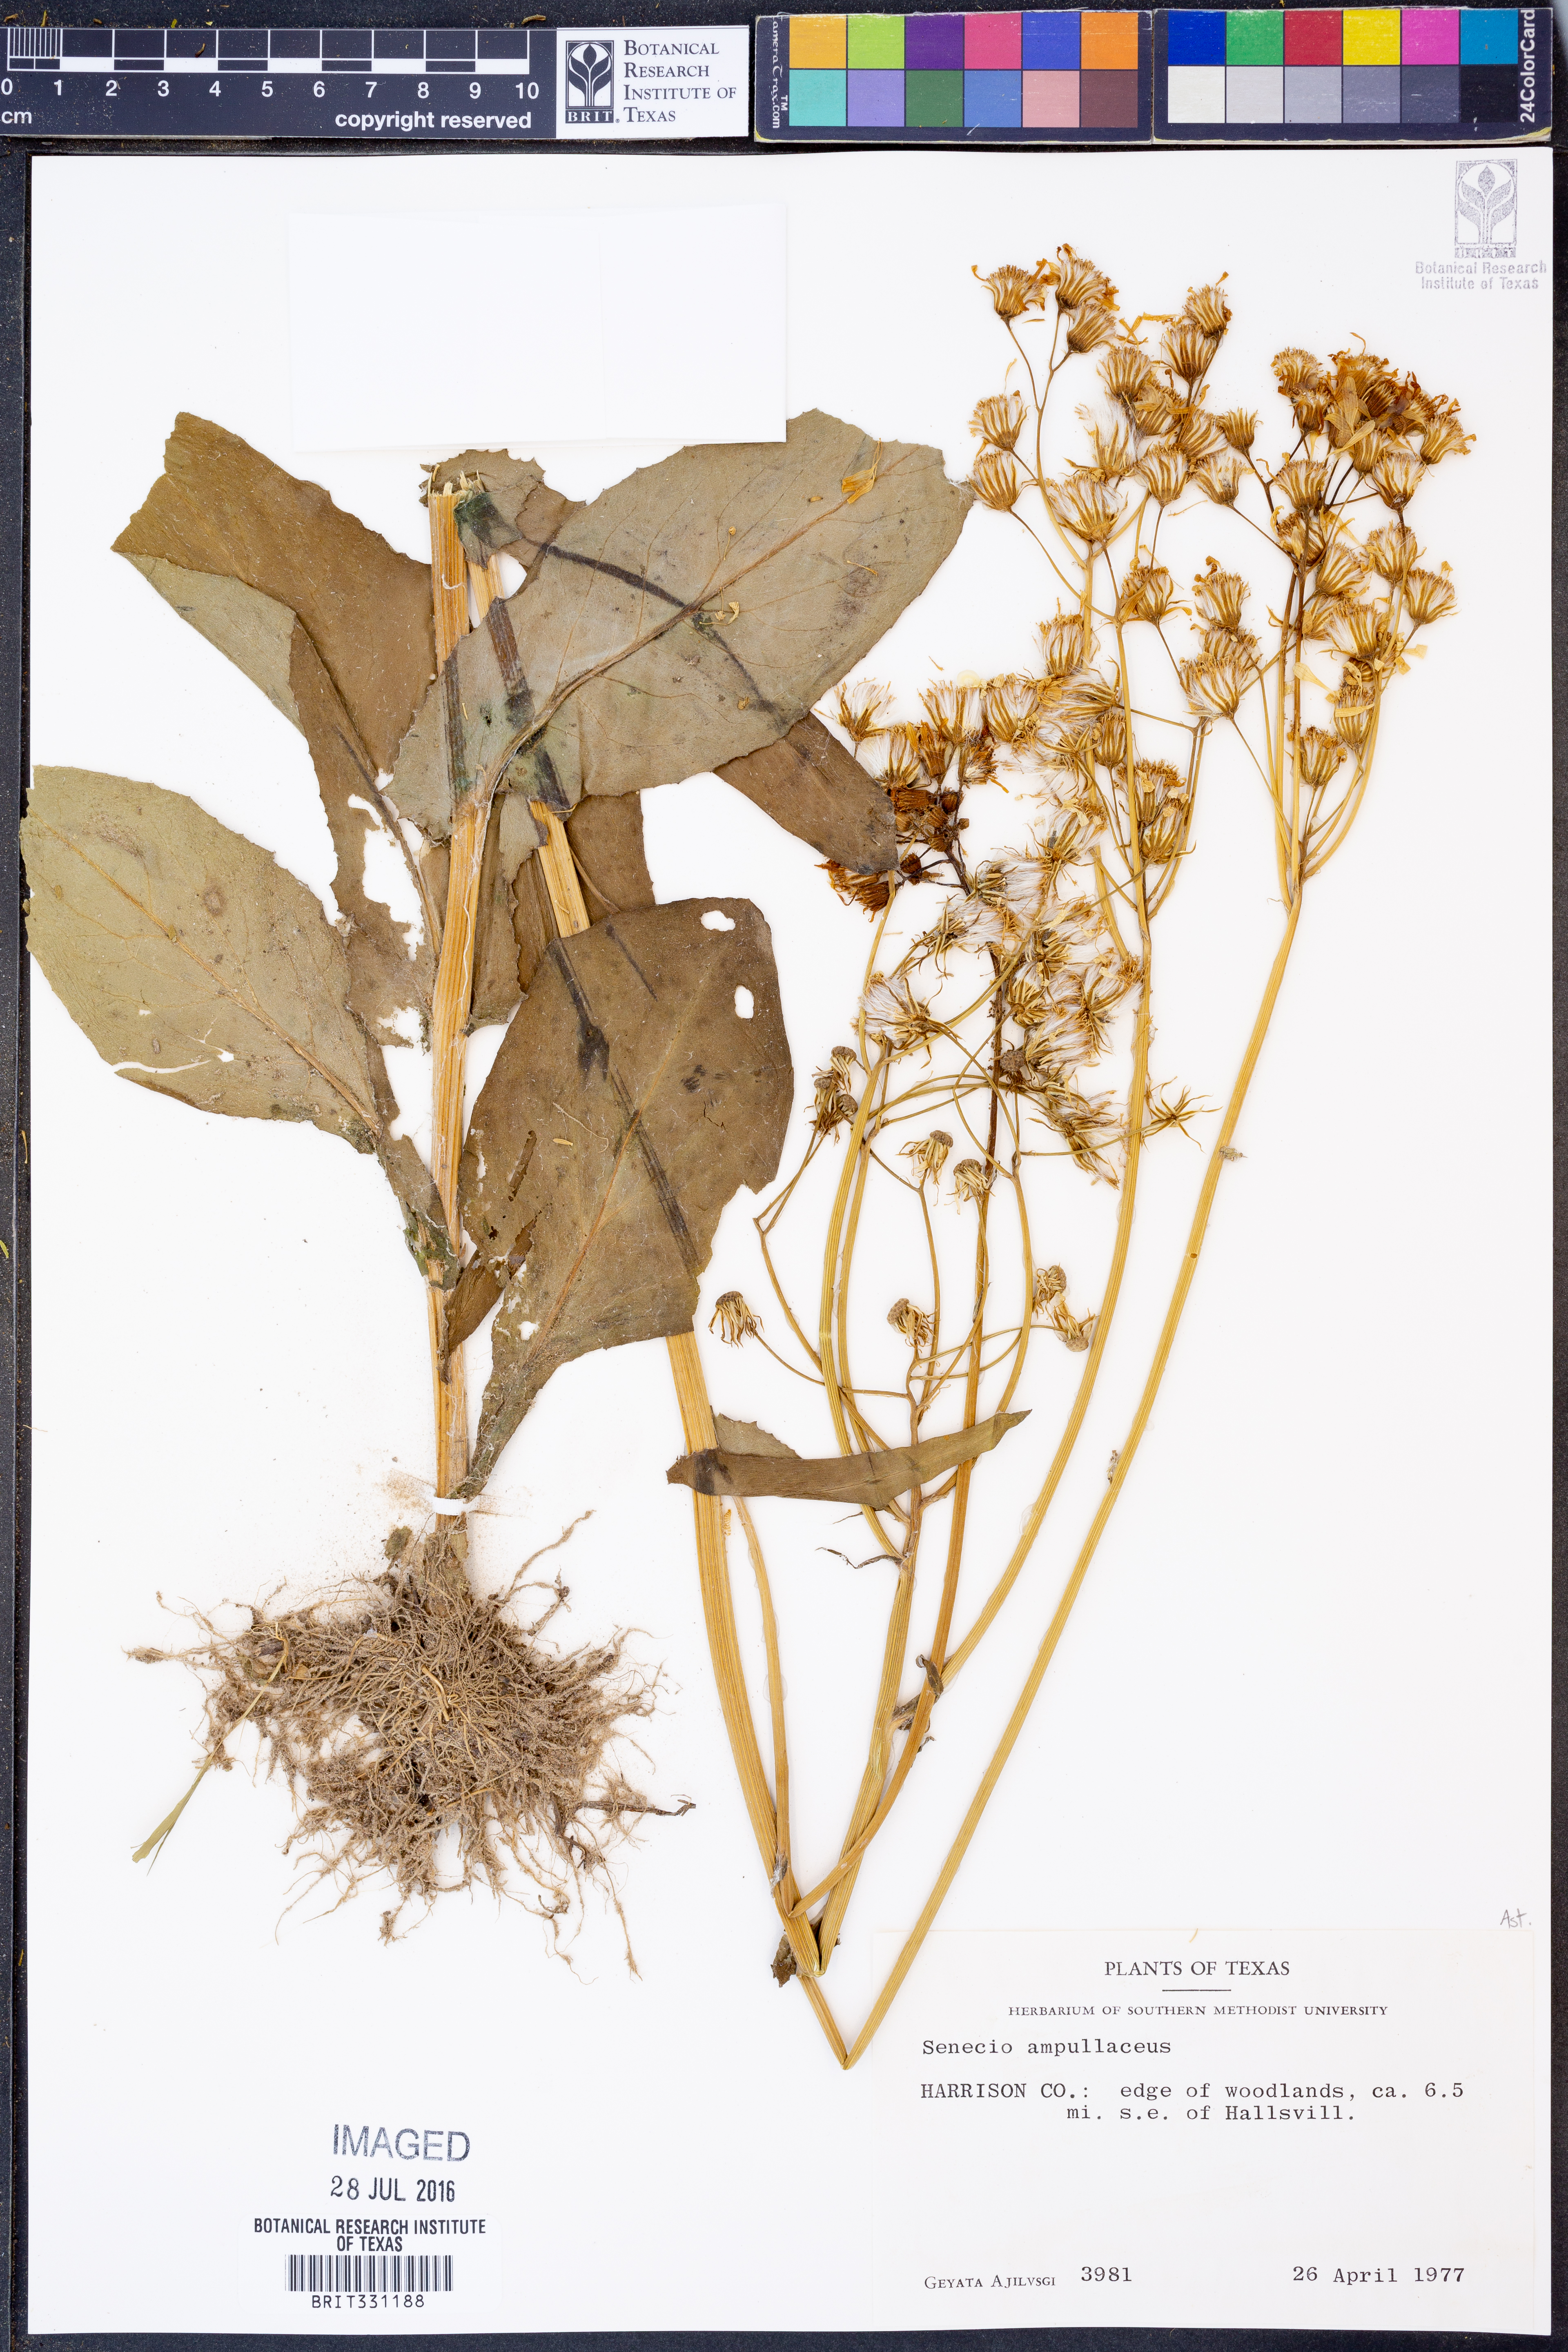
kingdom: Plantae
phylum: Tracheophyta
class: Magnoliopsida
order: Asterales
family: Asteraceae
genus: Senecio
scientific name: Senecio ampullaceus
